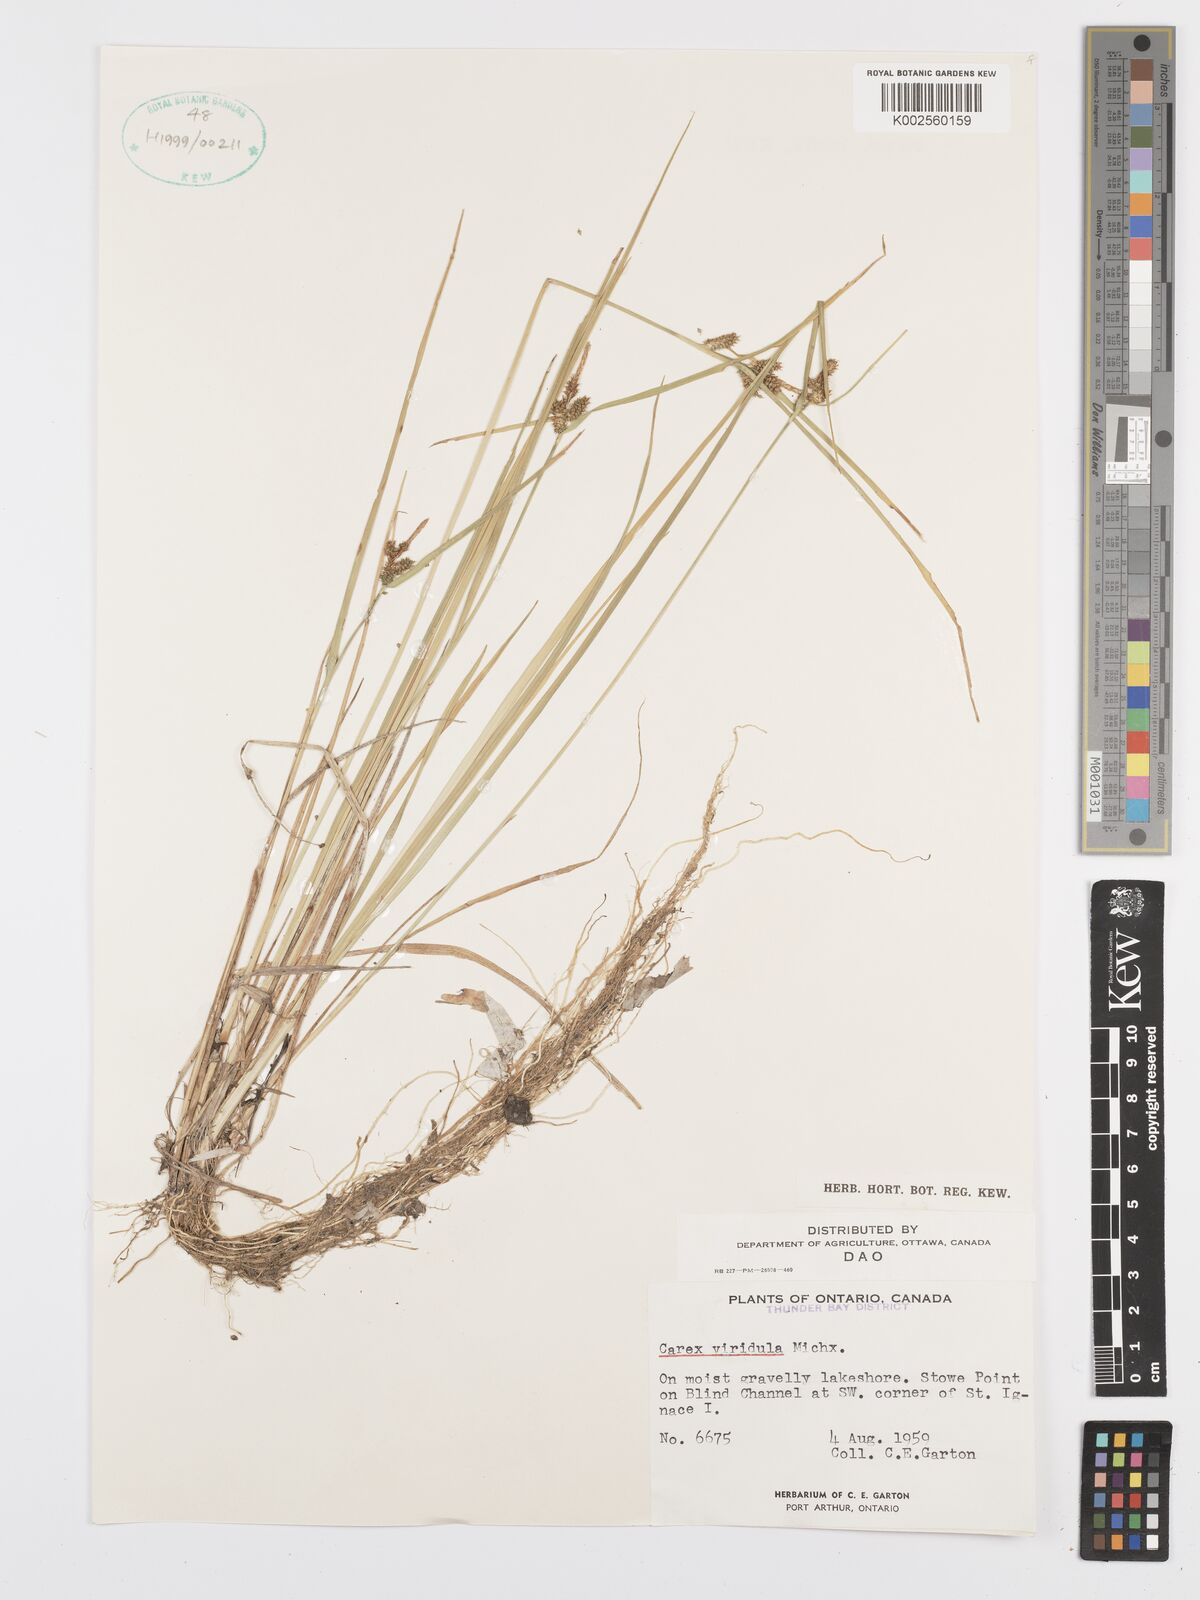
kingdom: Plantae
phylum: Tracheophyta
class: Liliopsida
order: Poales
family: Cyperaceae
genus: Carex
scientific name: Carex oederi
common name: Common & small-fruited yellow-sedge
